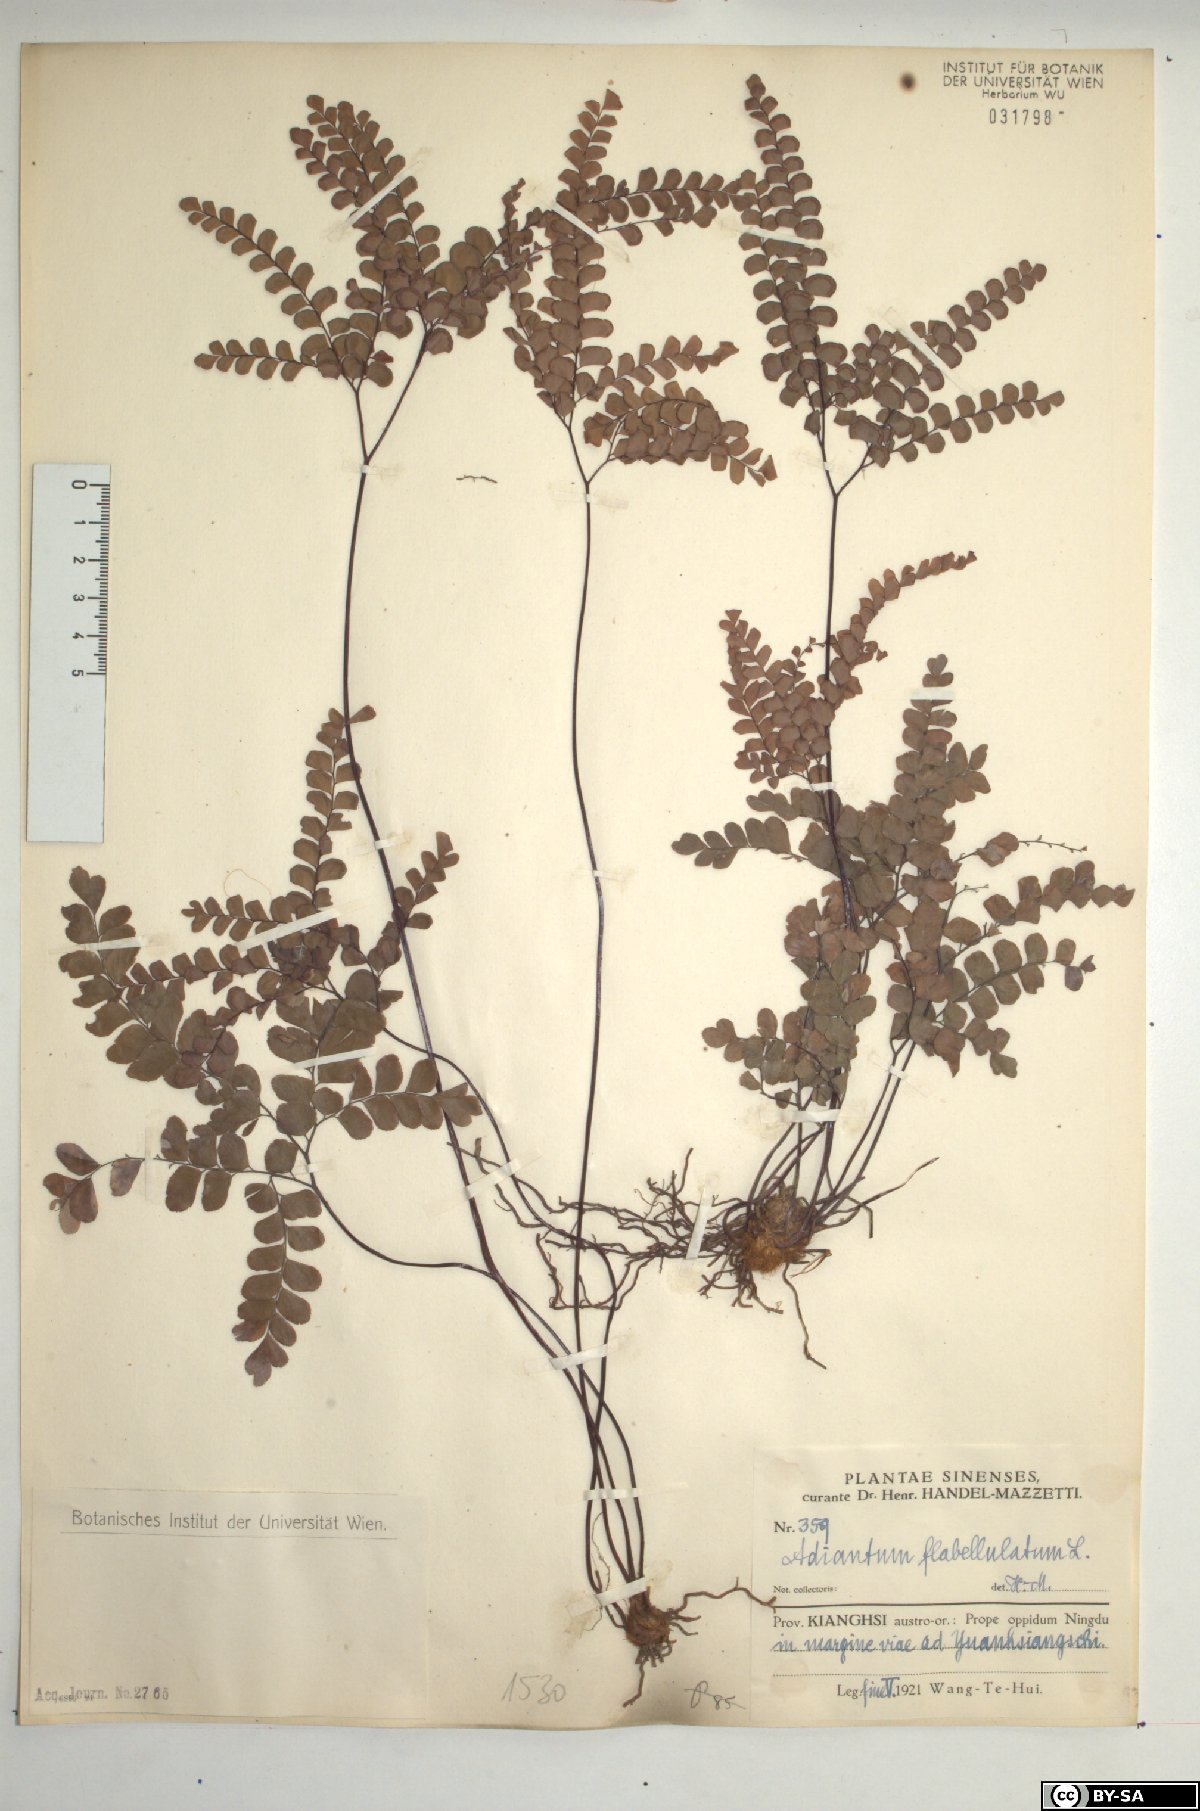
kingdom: Plantae
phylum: Tracheophyta
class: Polypodiopsida
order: Polypodiales
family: Pteridaceae
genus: Adiantum
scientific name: Adiantum flabellulatum
